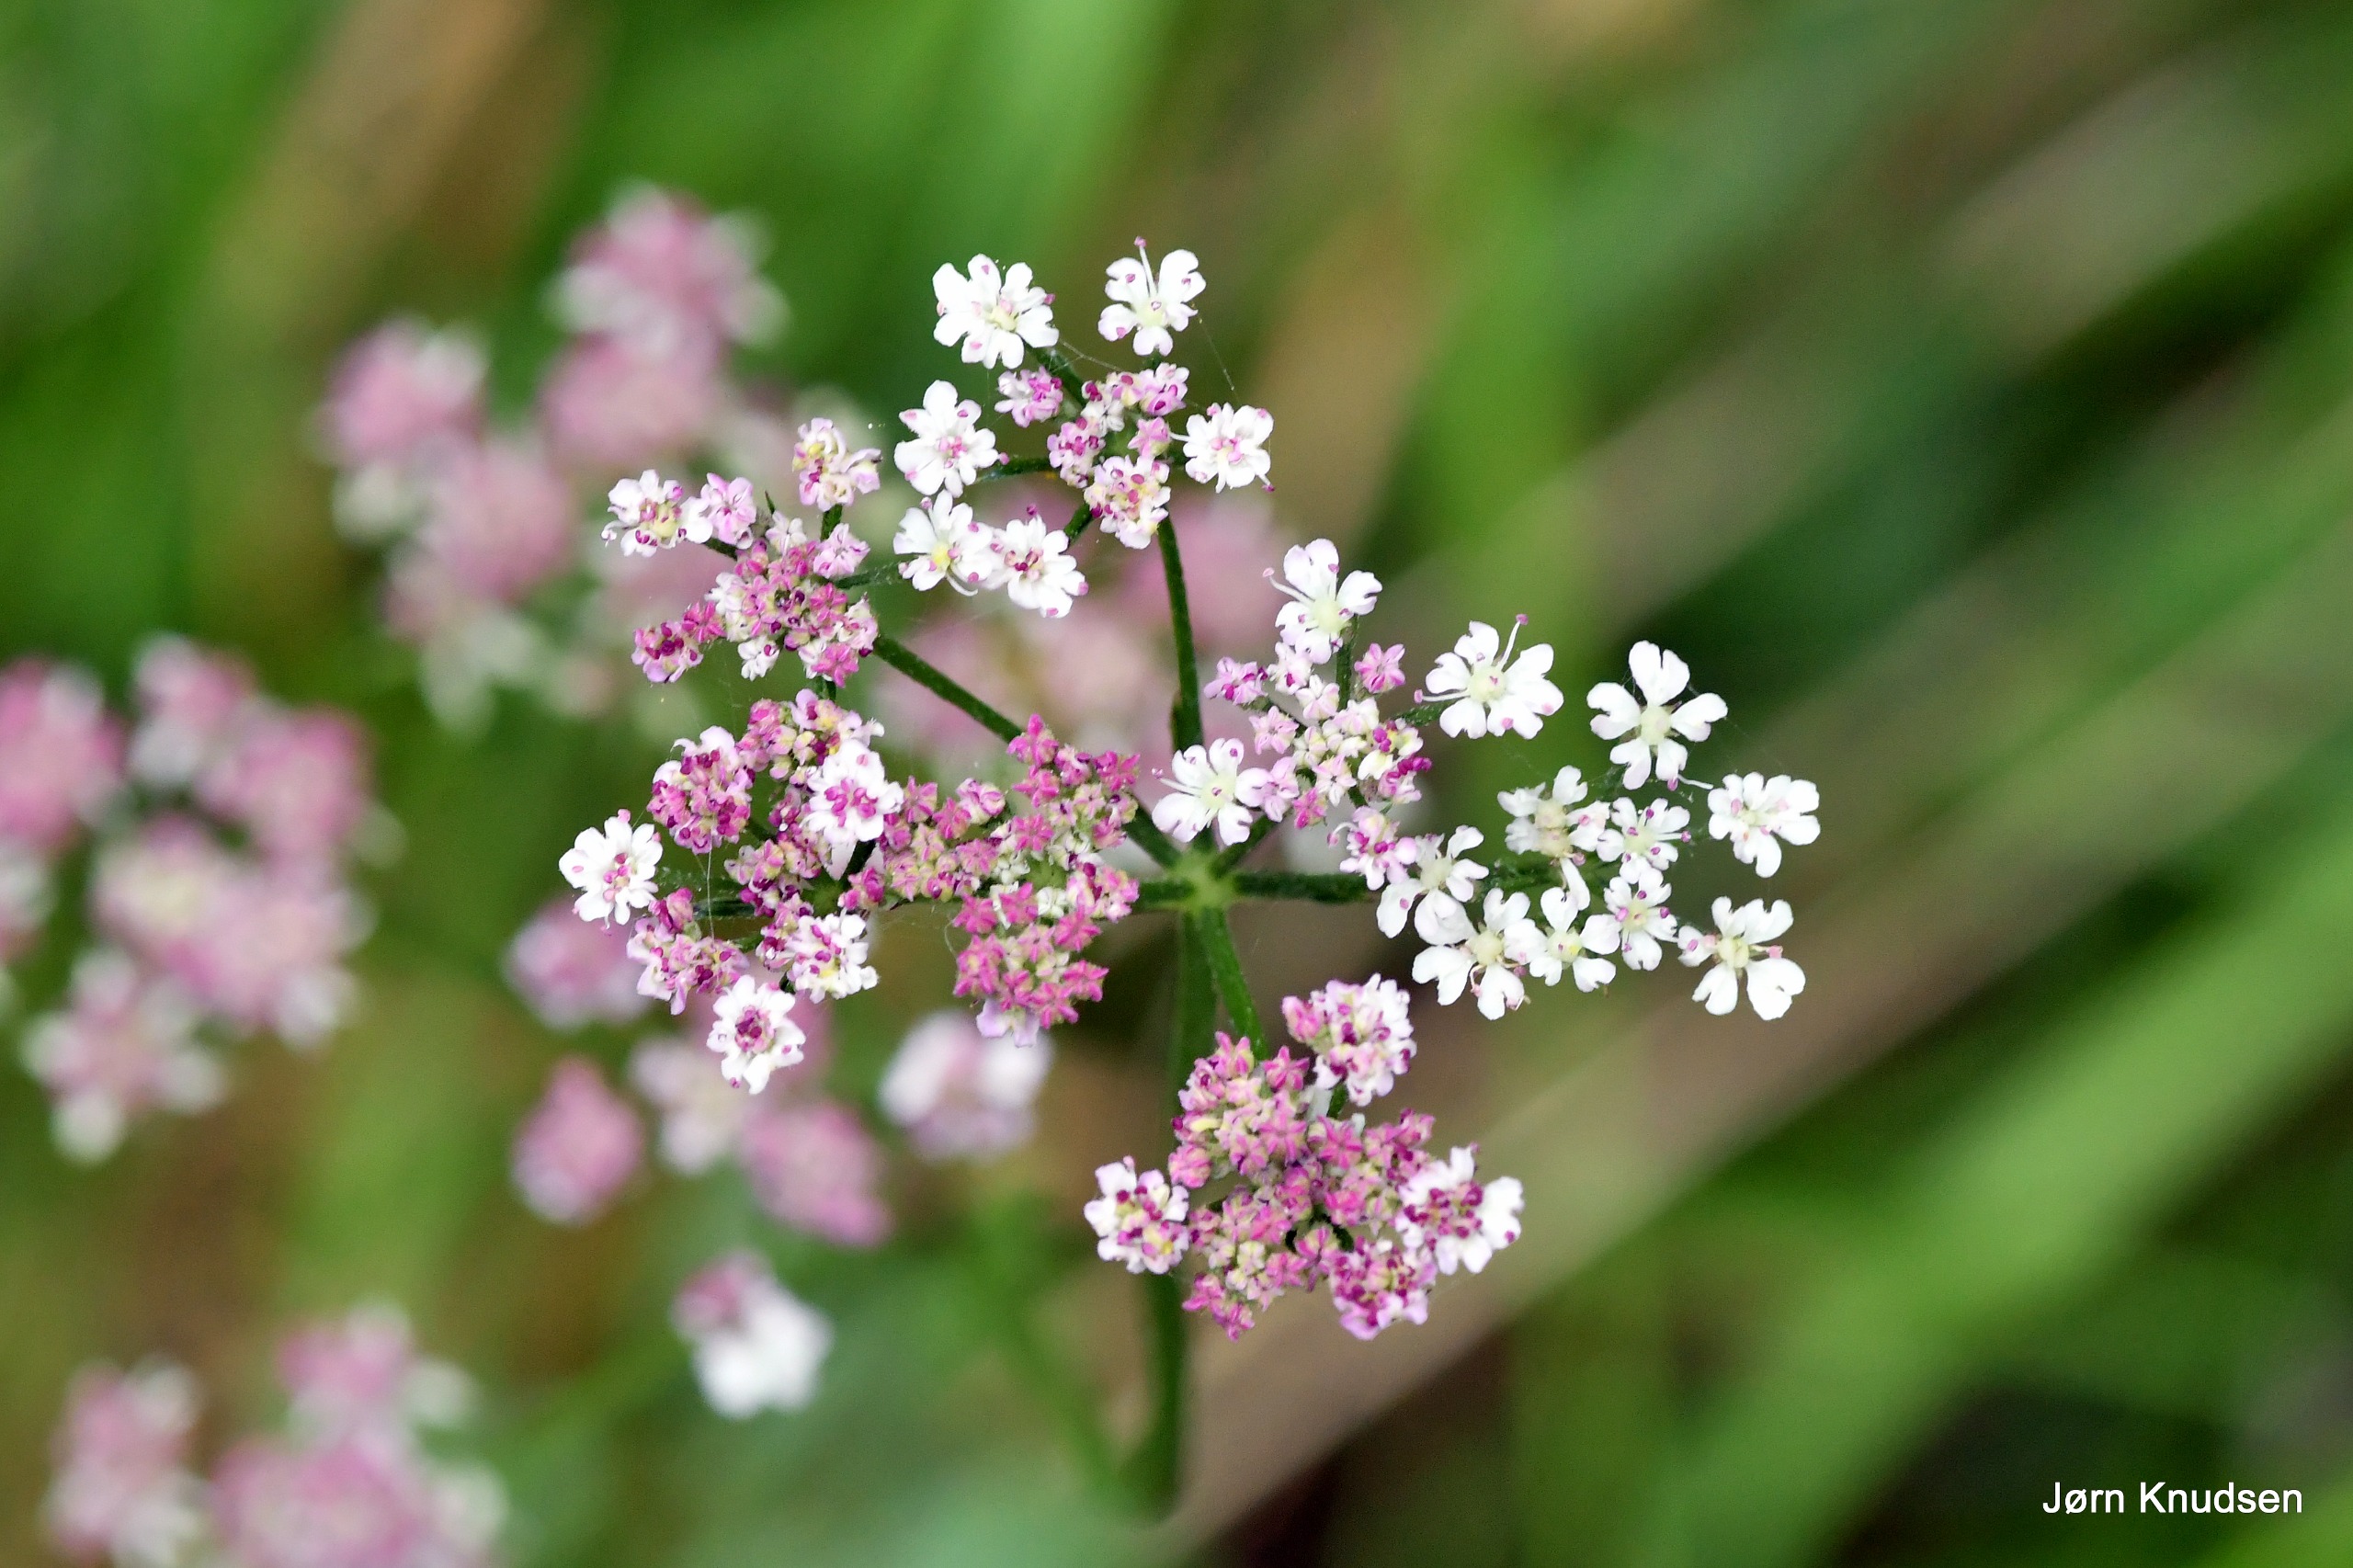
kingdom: Plantae
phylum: Tracheophyta
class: Magnoliopsida
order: Apiales
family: Apiaceae
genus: Torilis
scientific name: Torilis japonica
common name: Hvas randfrø
